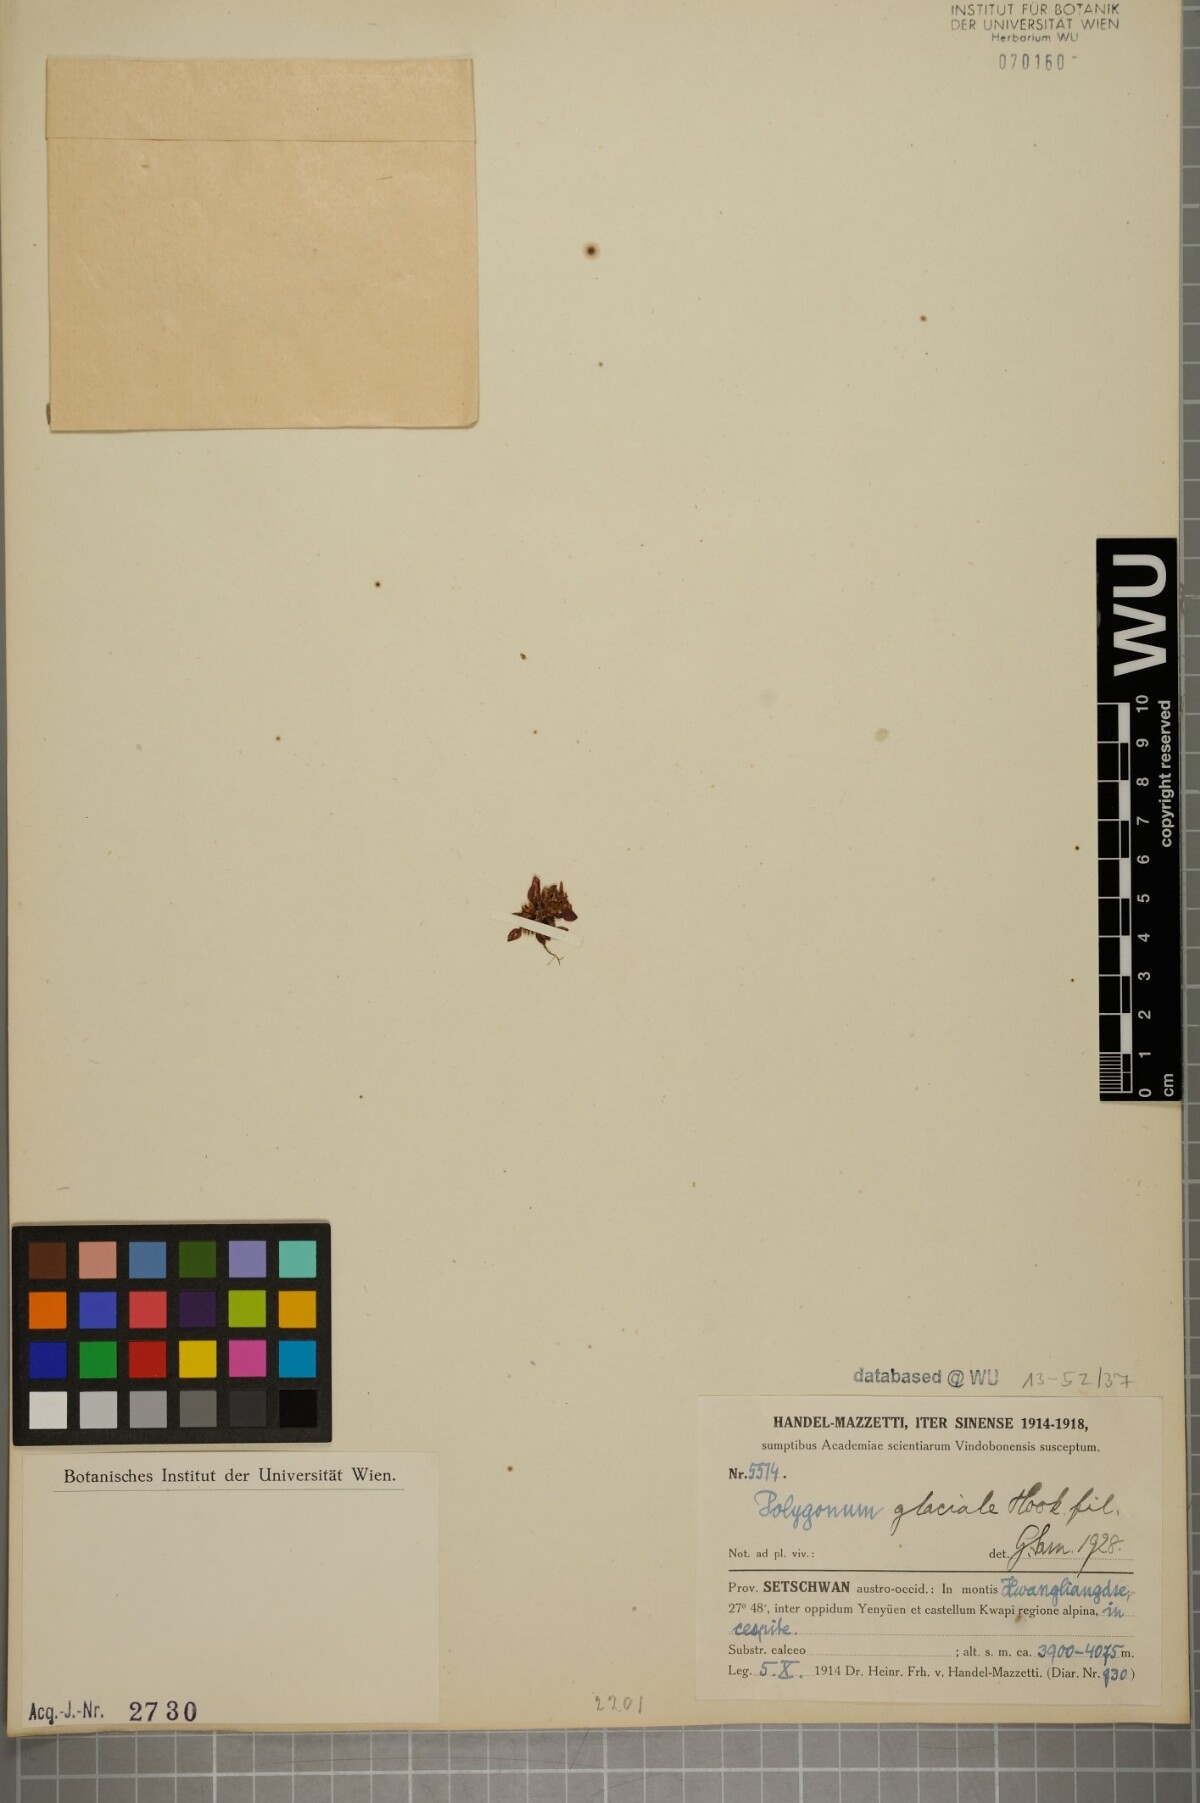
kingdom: Plantae
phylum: Tracheophyta
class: Magnoliopsida
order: Caryophyllales
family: Polygonaceae
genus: Persicaria
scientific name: Persicaria glacialis
